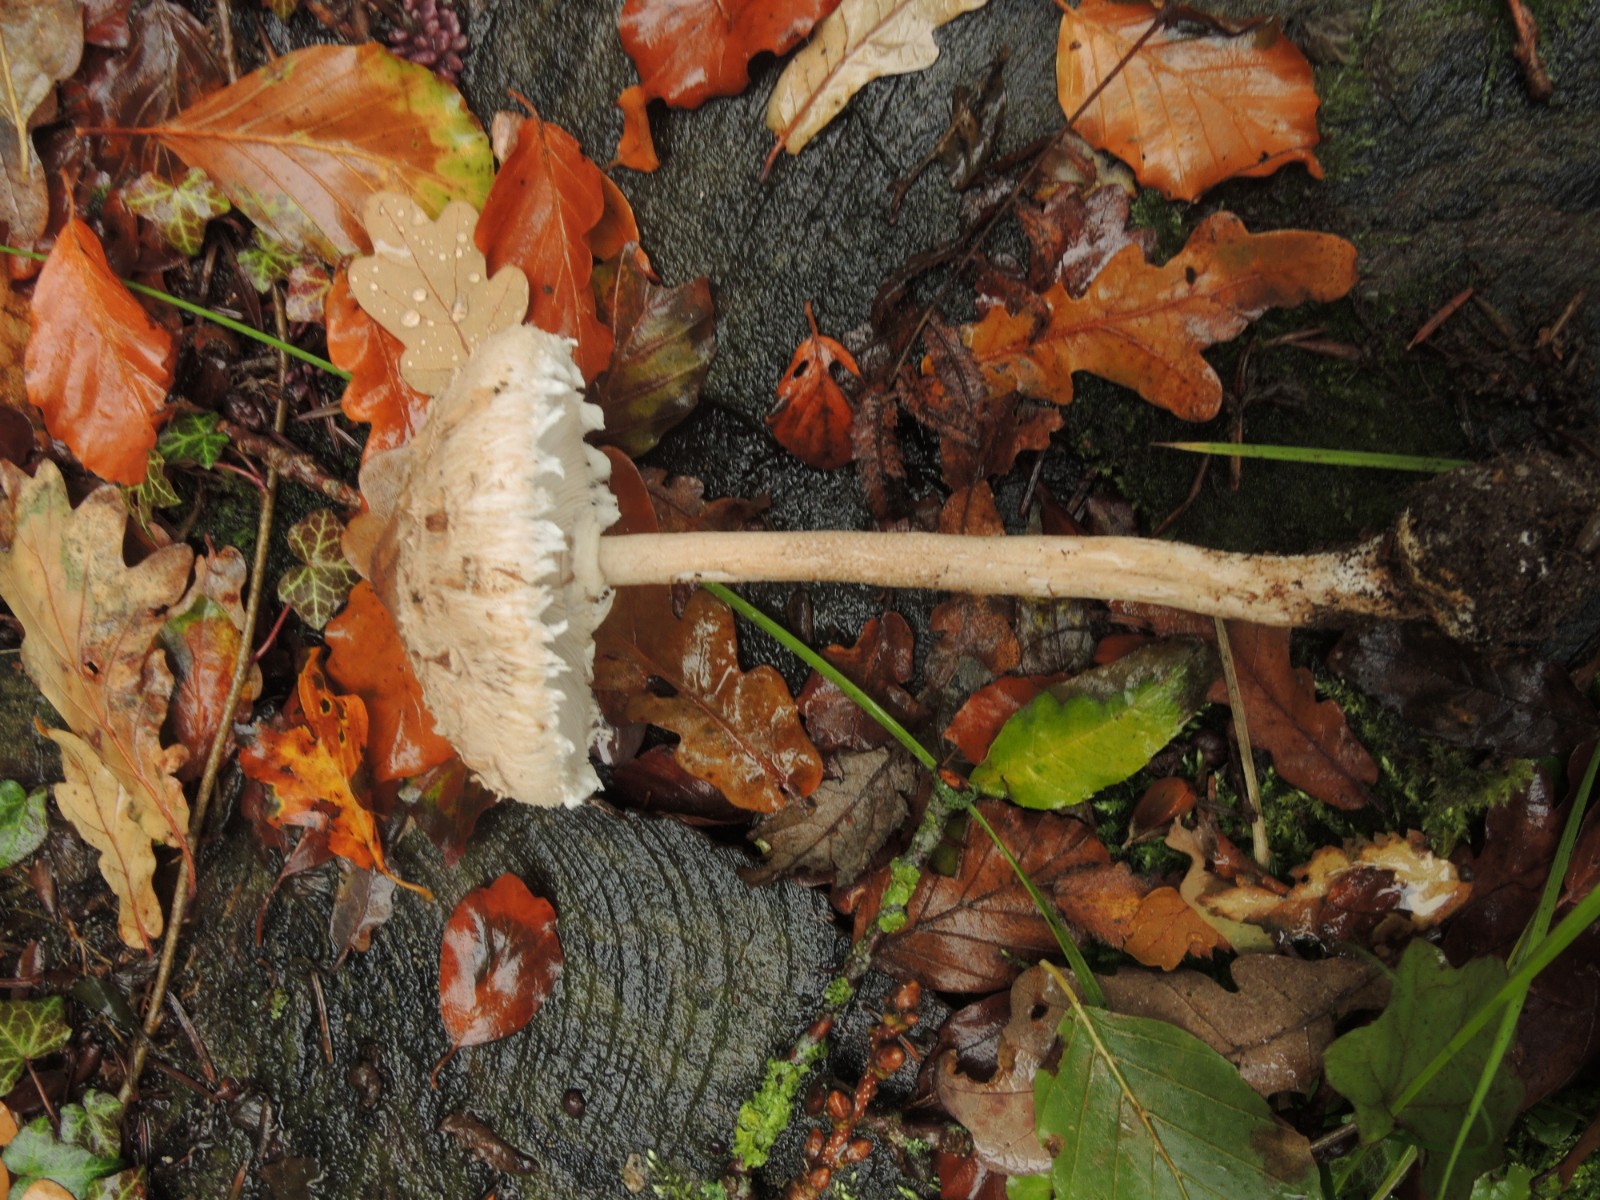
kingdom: Fungi
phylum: Basidiomycota
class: Agaricomycetes
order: Agaricales
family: Agaricaceae
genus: Macrolepiota
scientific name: Macrolepiota fuliginosa
